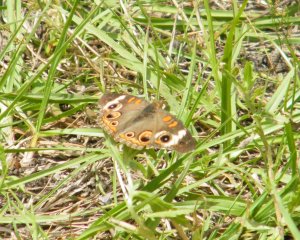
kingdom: Animalia
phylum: Arthropoda
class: Insecta
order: Lepidoptera
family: Nymphalidae
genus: Junonia
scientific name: Junonia coenia
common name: Common Buckeye
